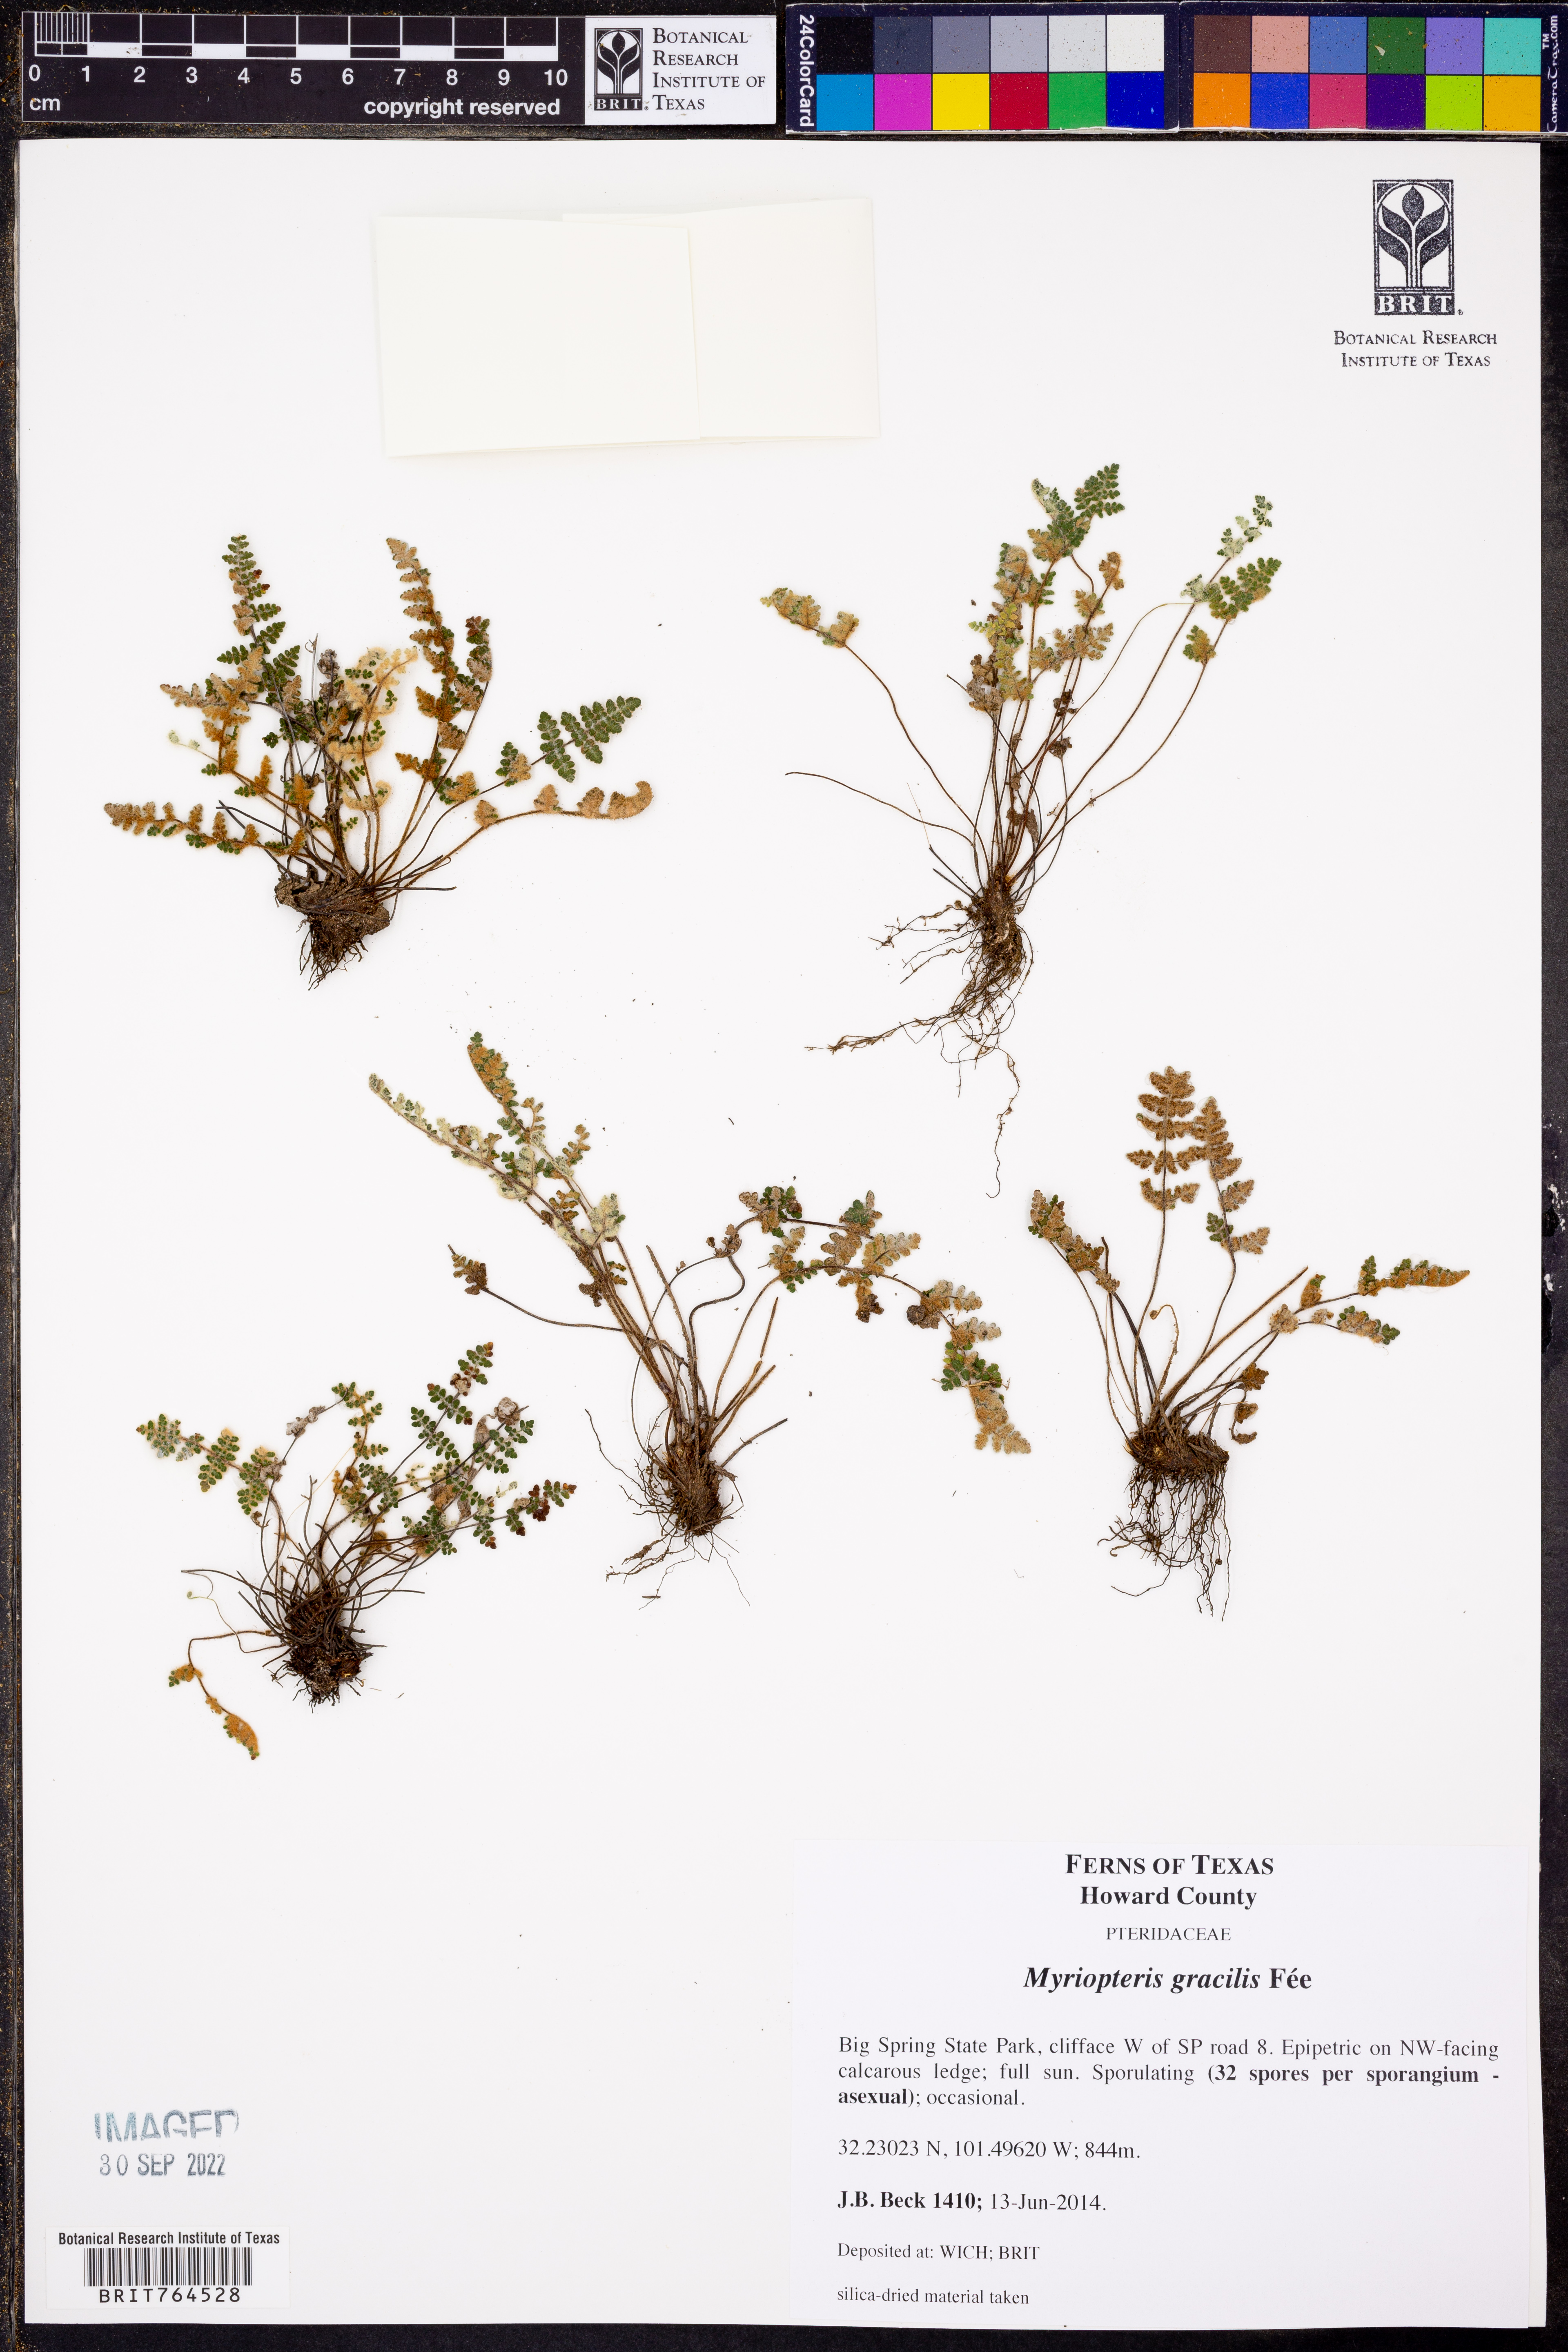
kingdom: Plantae
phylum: Tracheophyta
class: Polypodiopsida
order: Polypodiales
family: Pteridaceae
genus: Myriopteris
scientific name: Myriopteris gracilis
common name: Fee's lip fern
